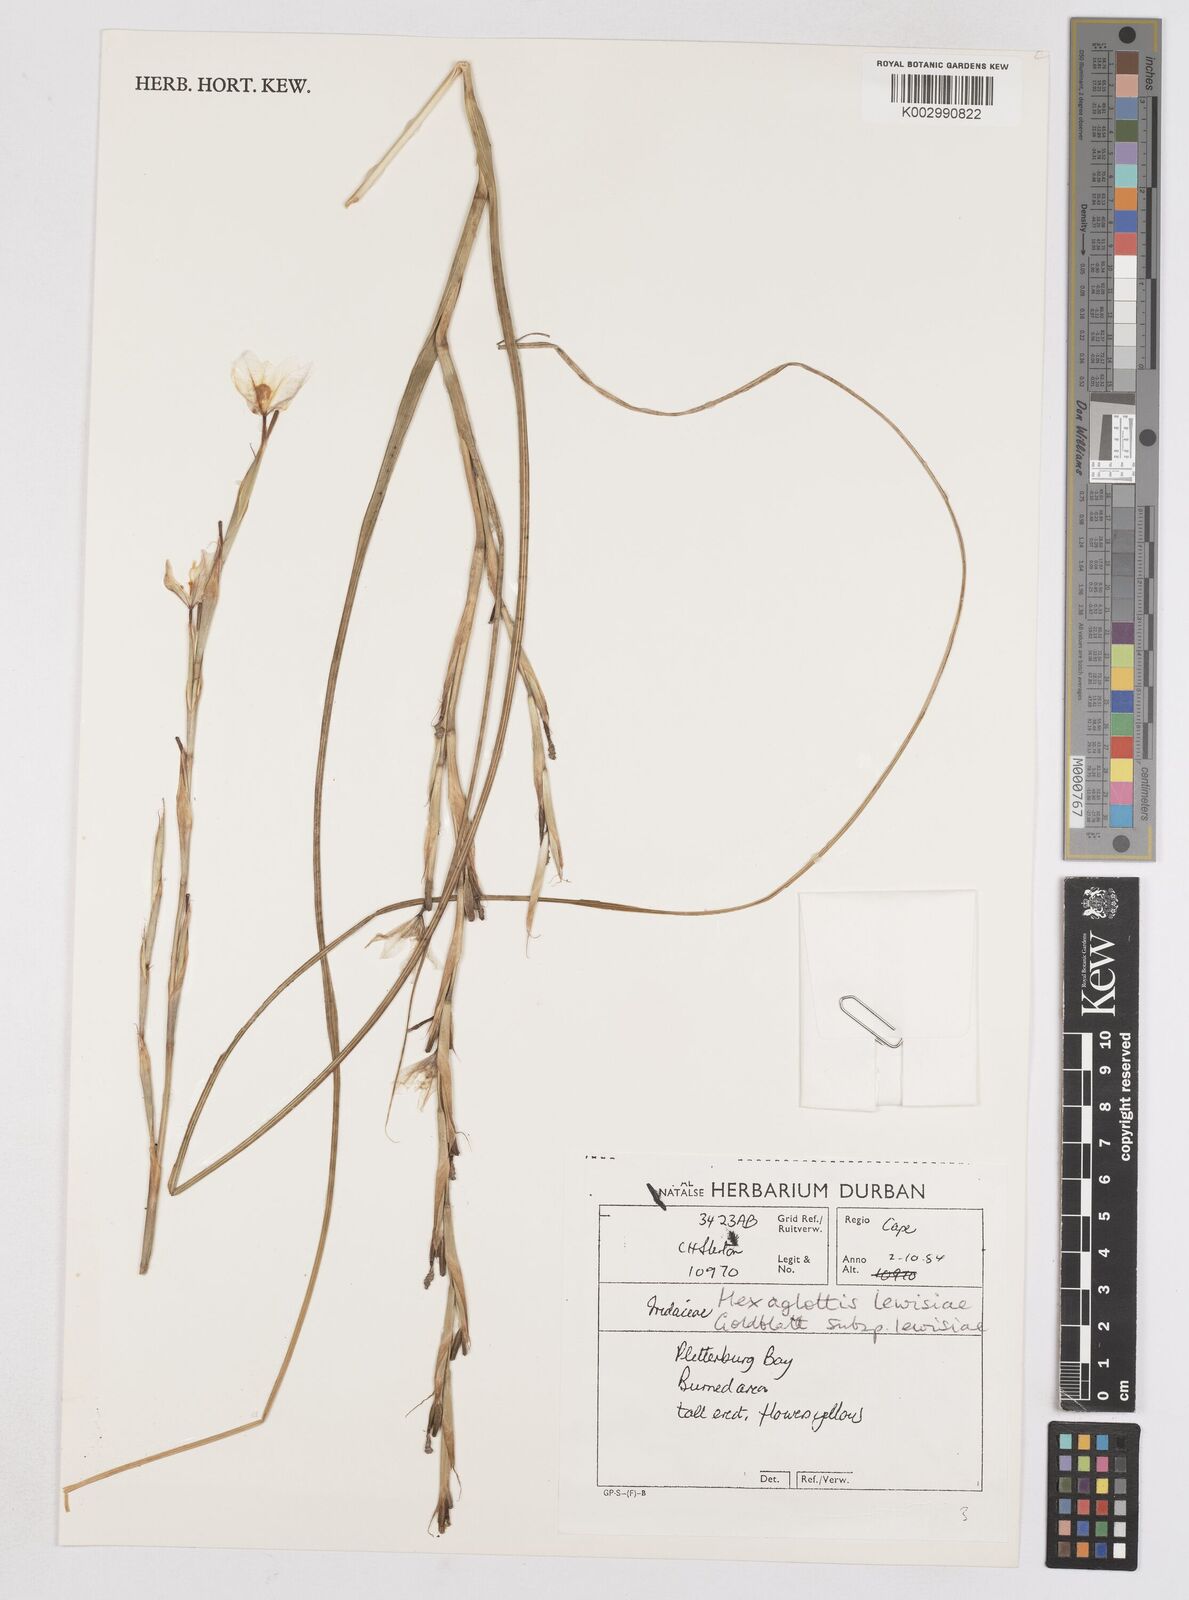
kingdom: Plantae
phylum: Tracheophyta
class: Liliopsida
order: Asparagales
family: Iridaceae
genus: Moraea
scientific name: Moraea lewisiae
